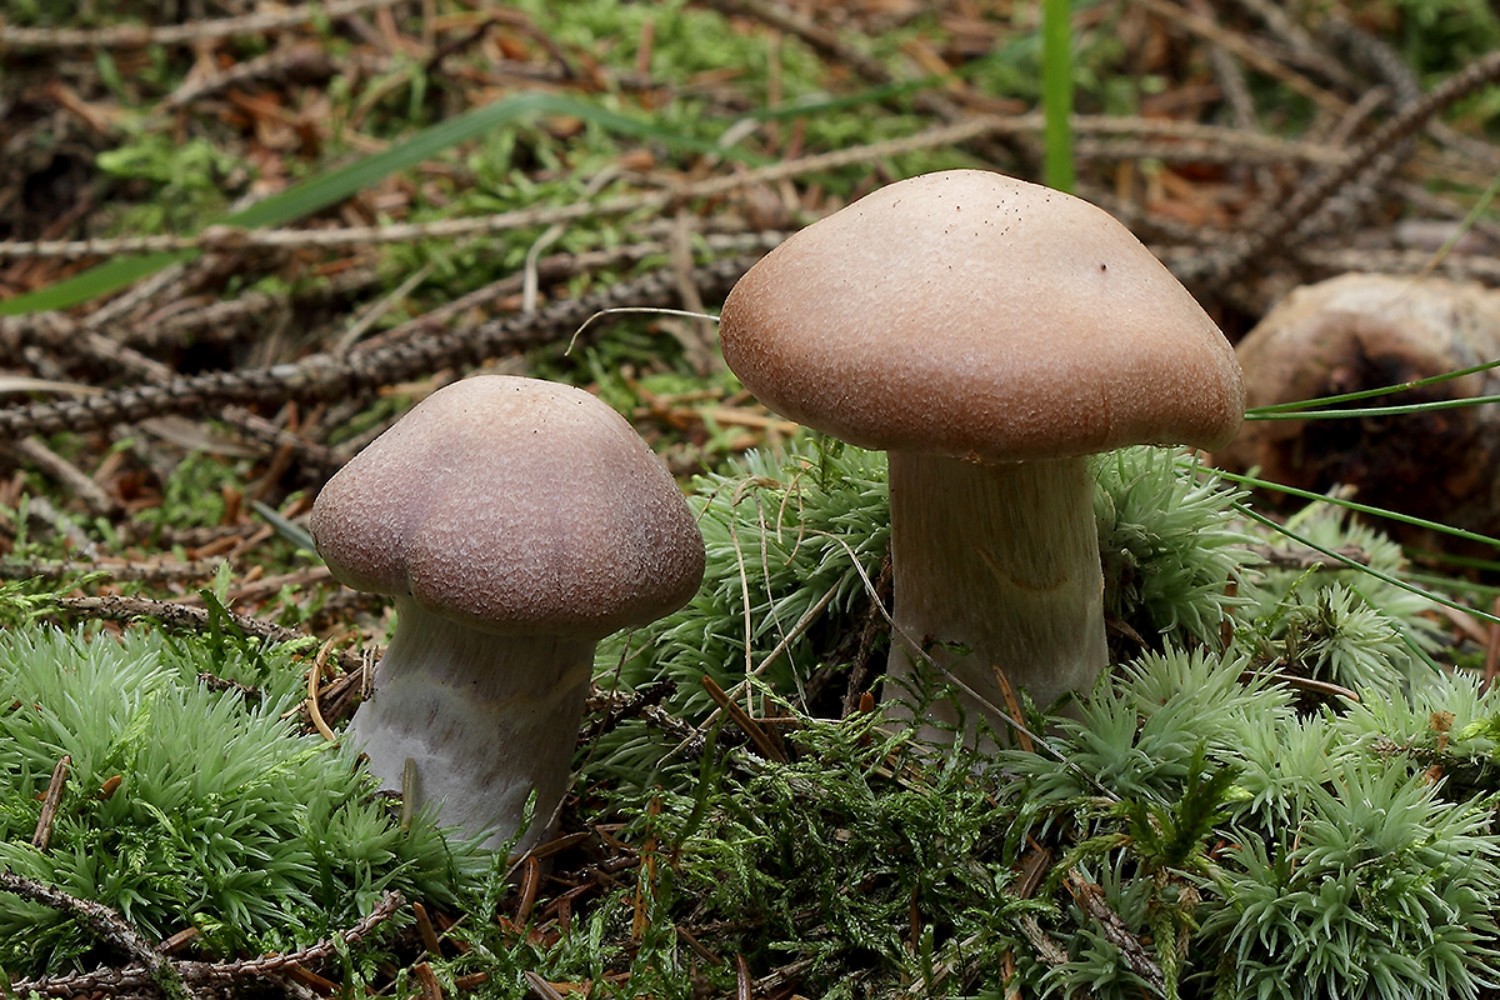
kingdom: Fungi
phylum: Basidiomycota
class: Agaricomycetes
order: Agaricales
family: Cortinariaceae
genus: Cortinarius
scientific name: Cortinarius malachius
